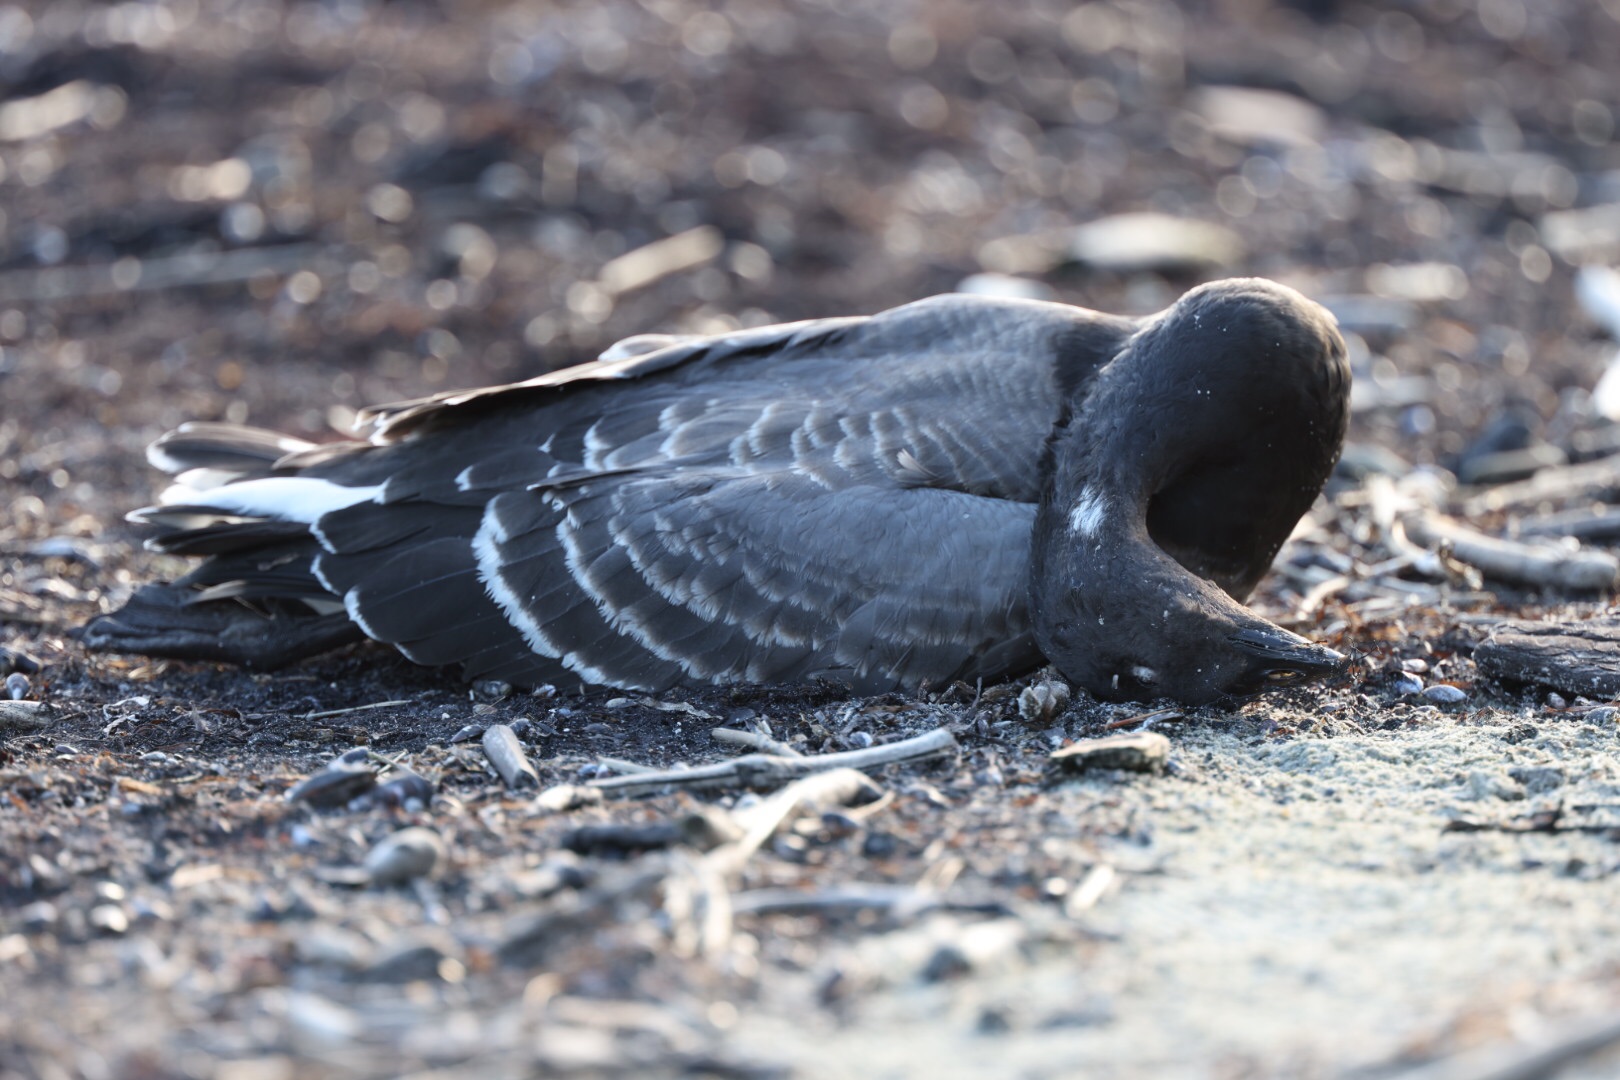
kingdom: Animalia
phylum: Chordata
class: Aves
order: Anseriformes
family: Anatidae
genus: Branta
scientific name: Branta bernicla
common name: Knortegås
